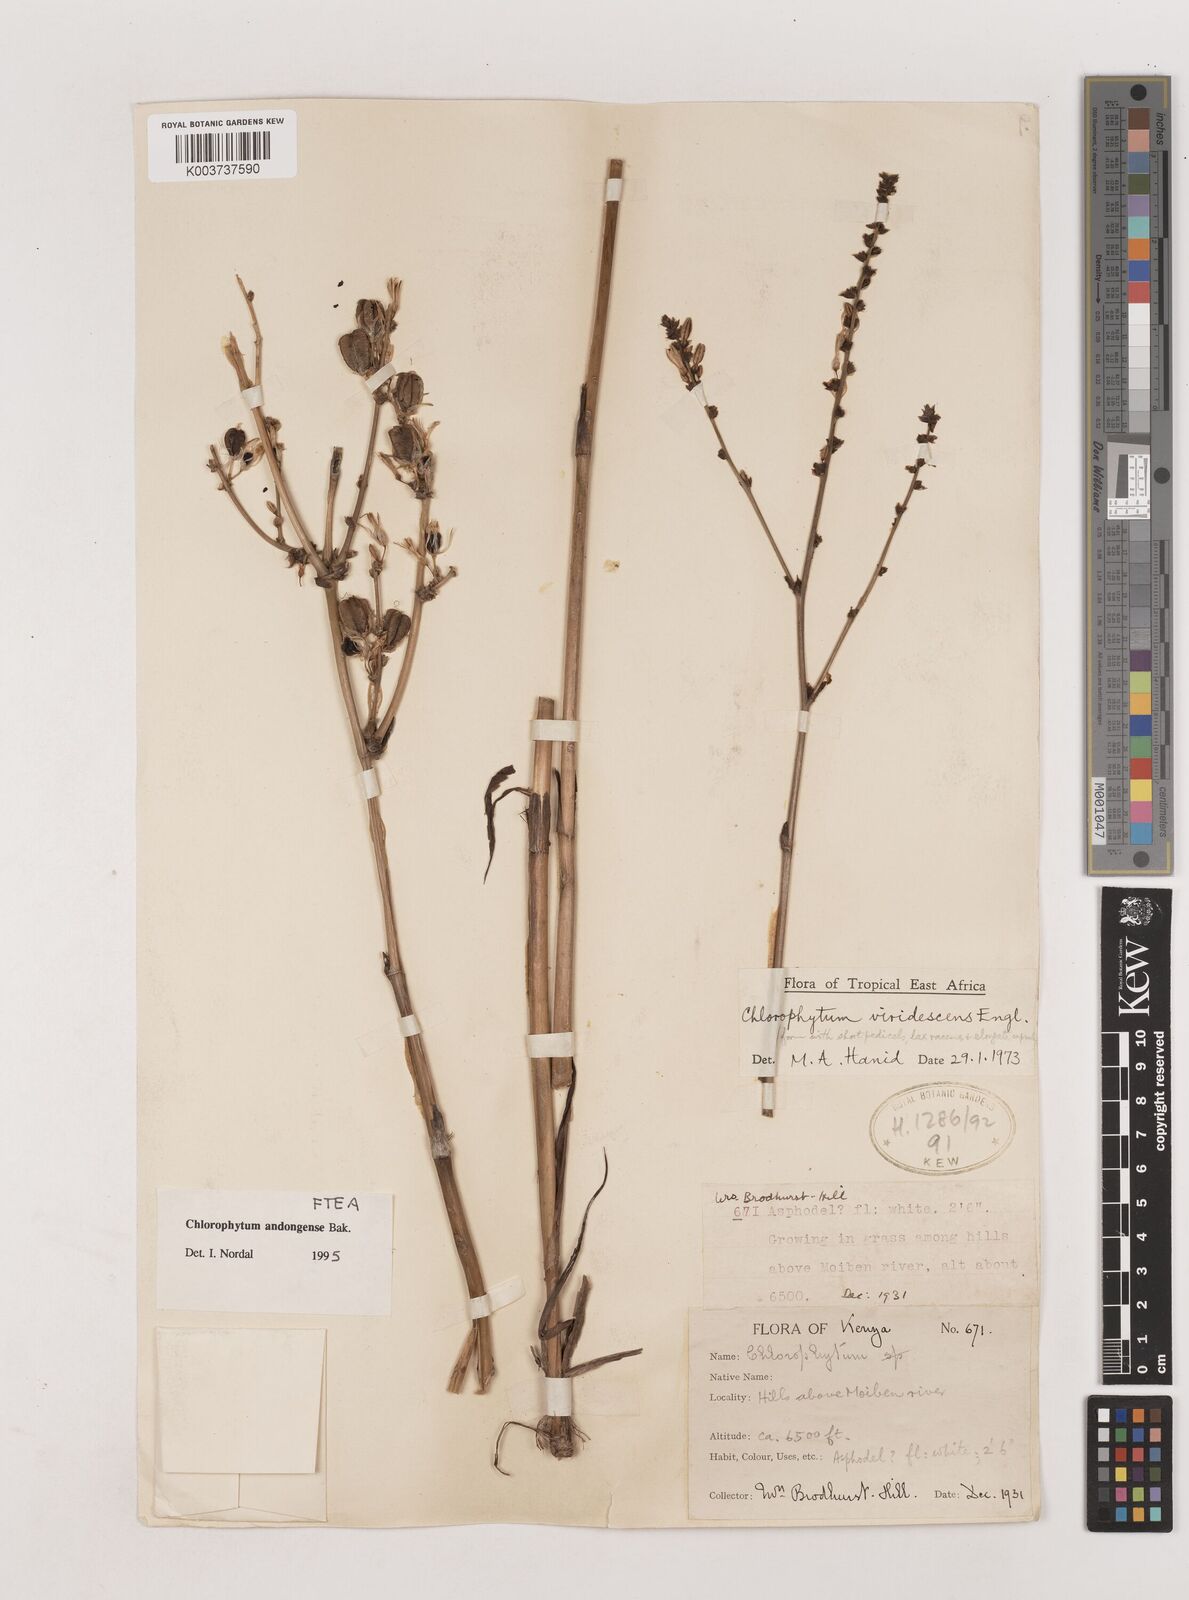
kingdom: Plantae
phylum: Tracheophyta
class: Liliopsida
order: Asparagales
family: Asparagaceae
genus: Chlorophytum
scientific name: Chlorophytum andongense
